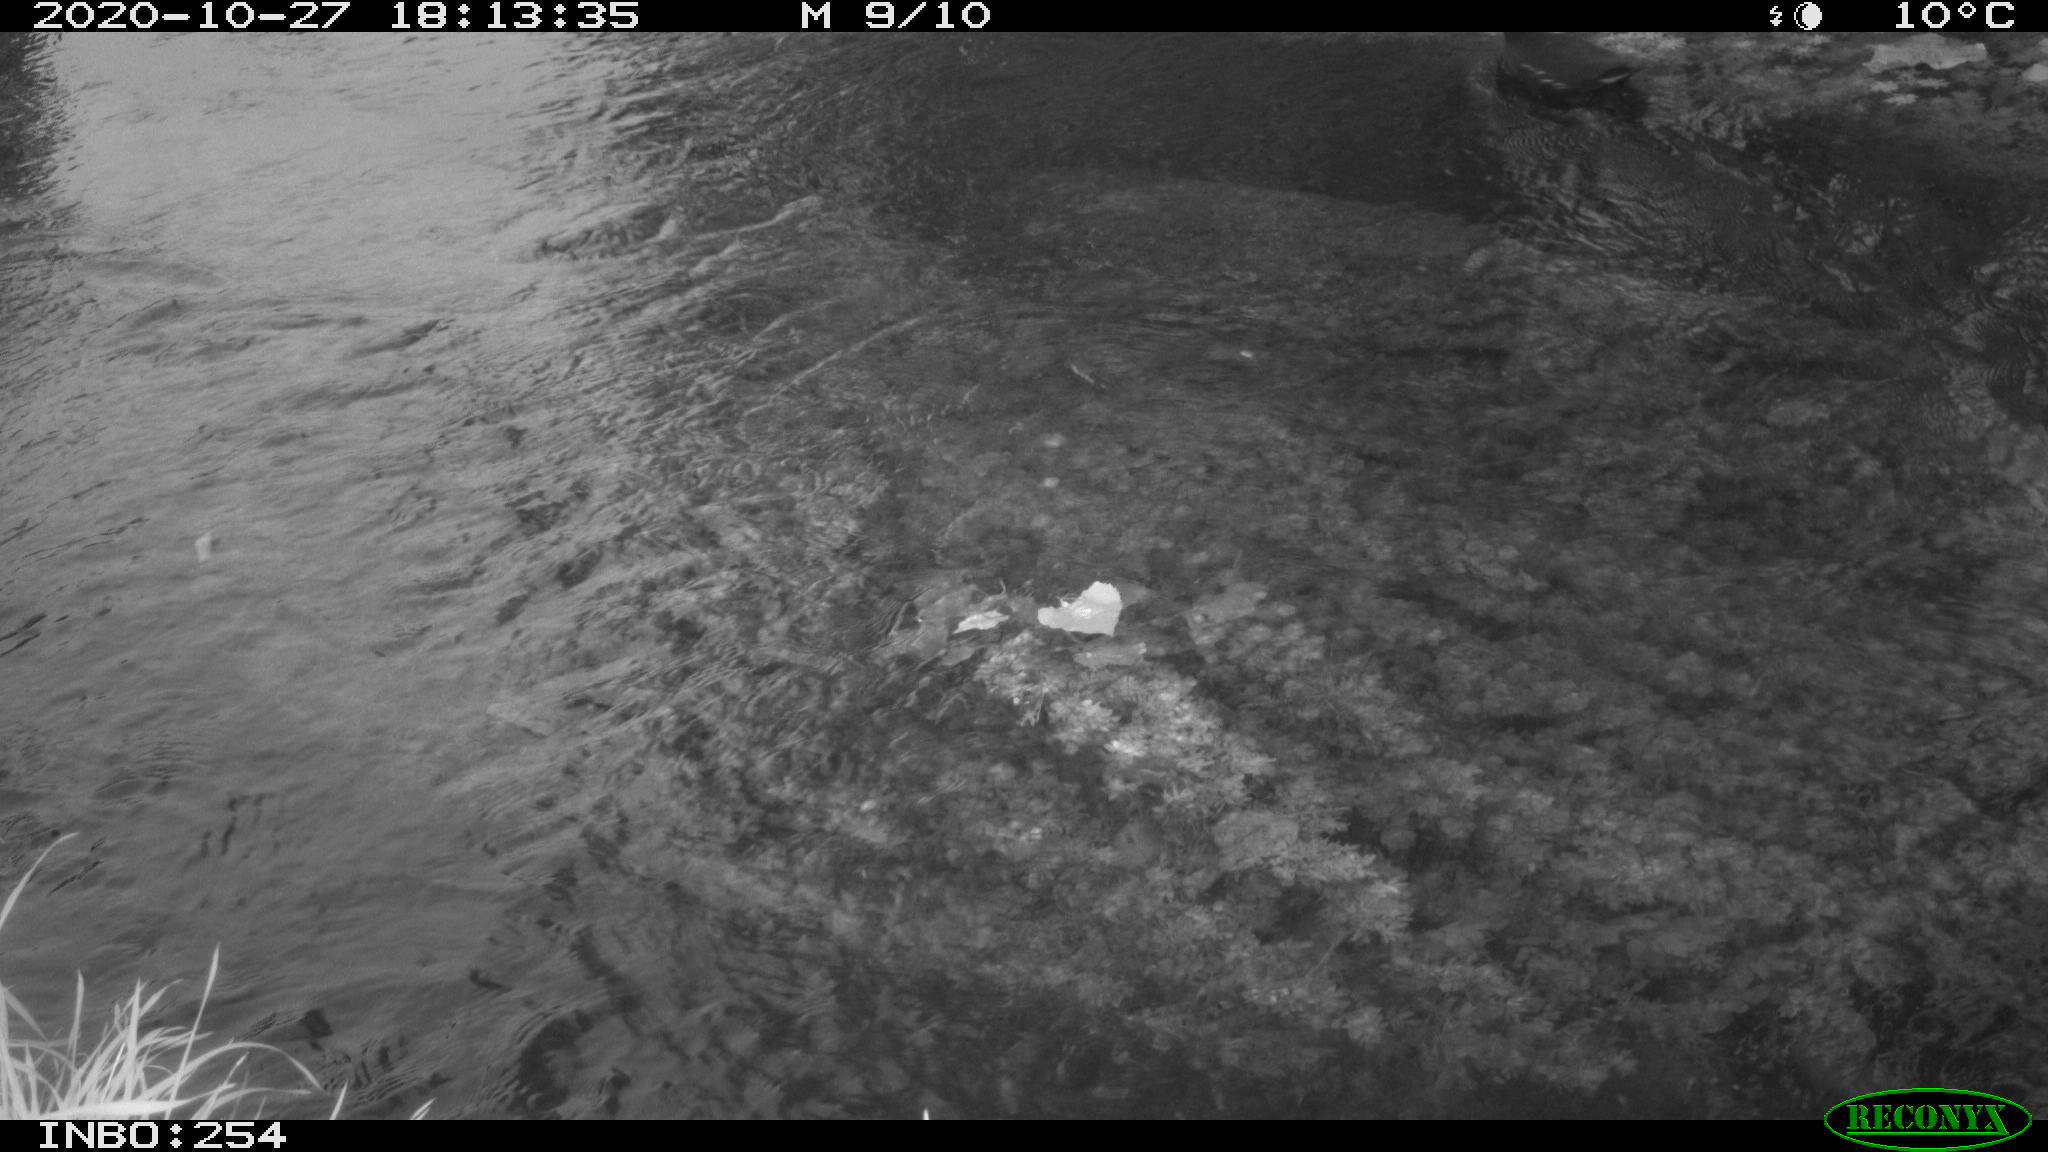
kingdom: Animalia
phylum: Chordata
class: Aves
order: Gruiformes
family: Rallidae
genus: Gallinula
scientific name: Gallinula chloropus
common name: Common moorhen
